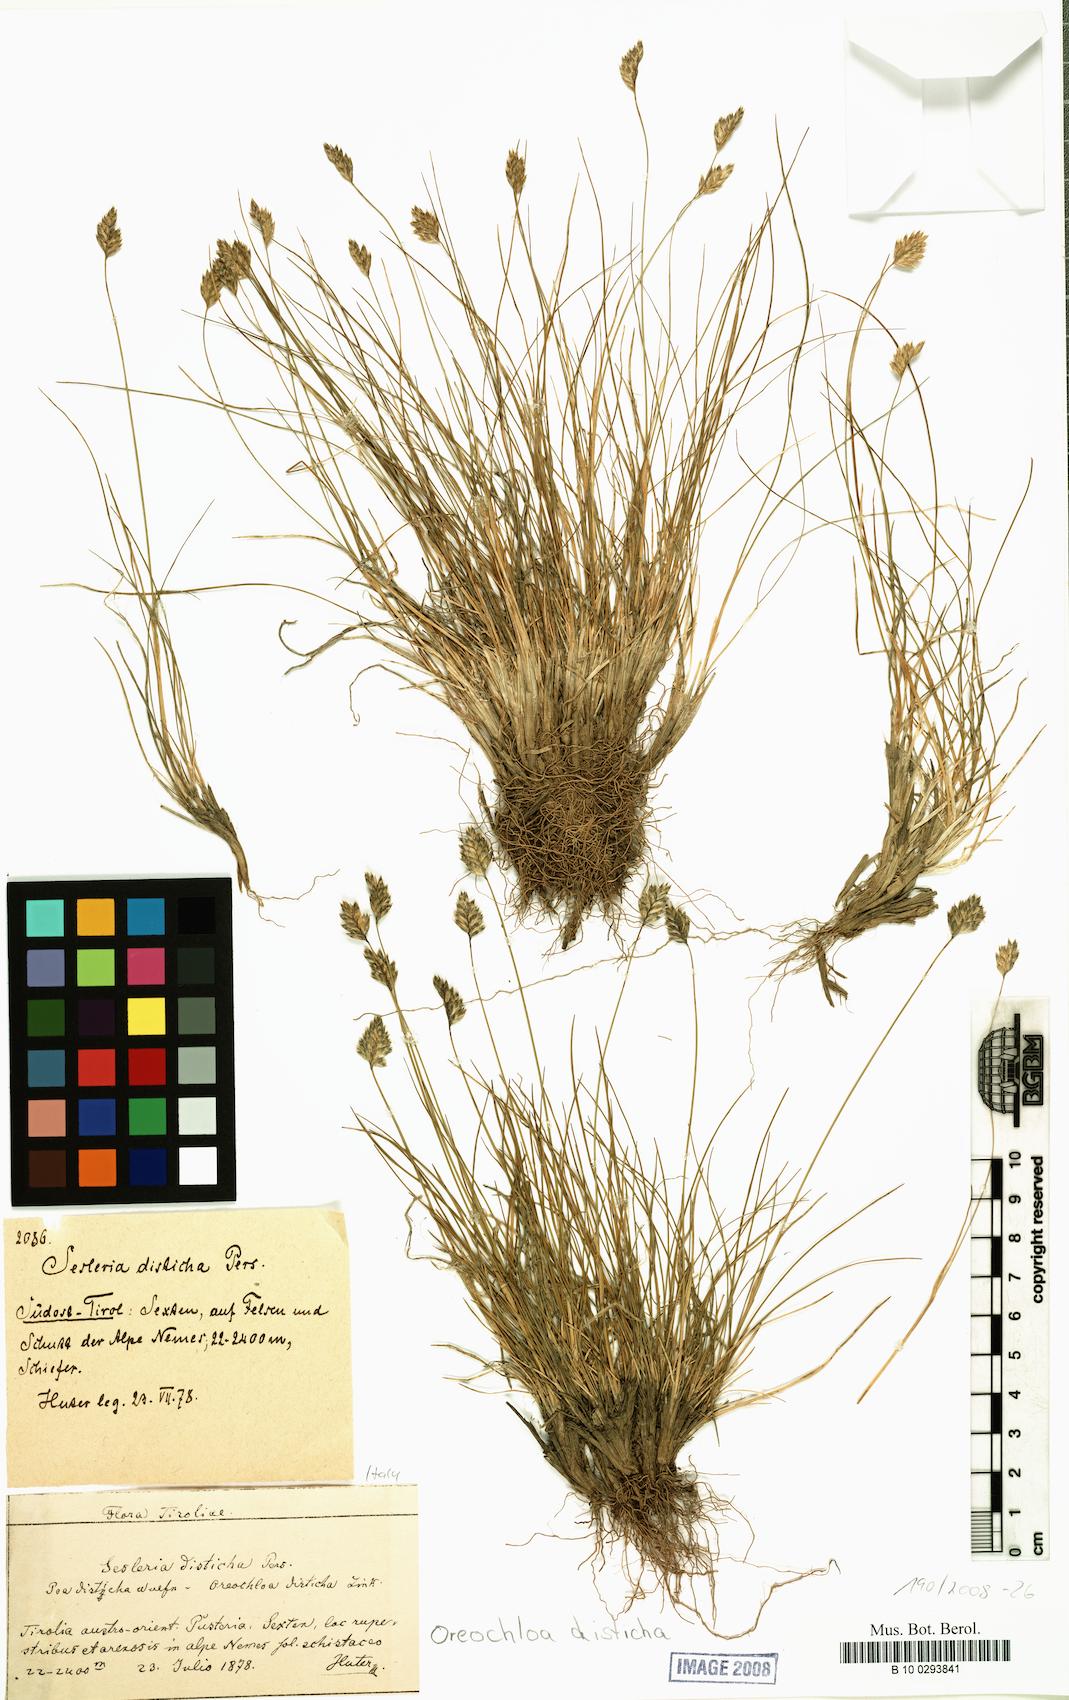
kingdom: Plantae
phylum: Tracheophyta
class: Liliopsida
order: Poales
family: Poaceae
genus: Oreochloa
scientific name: Oreochloa disticha
